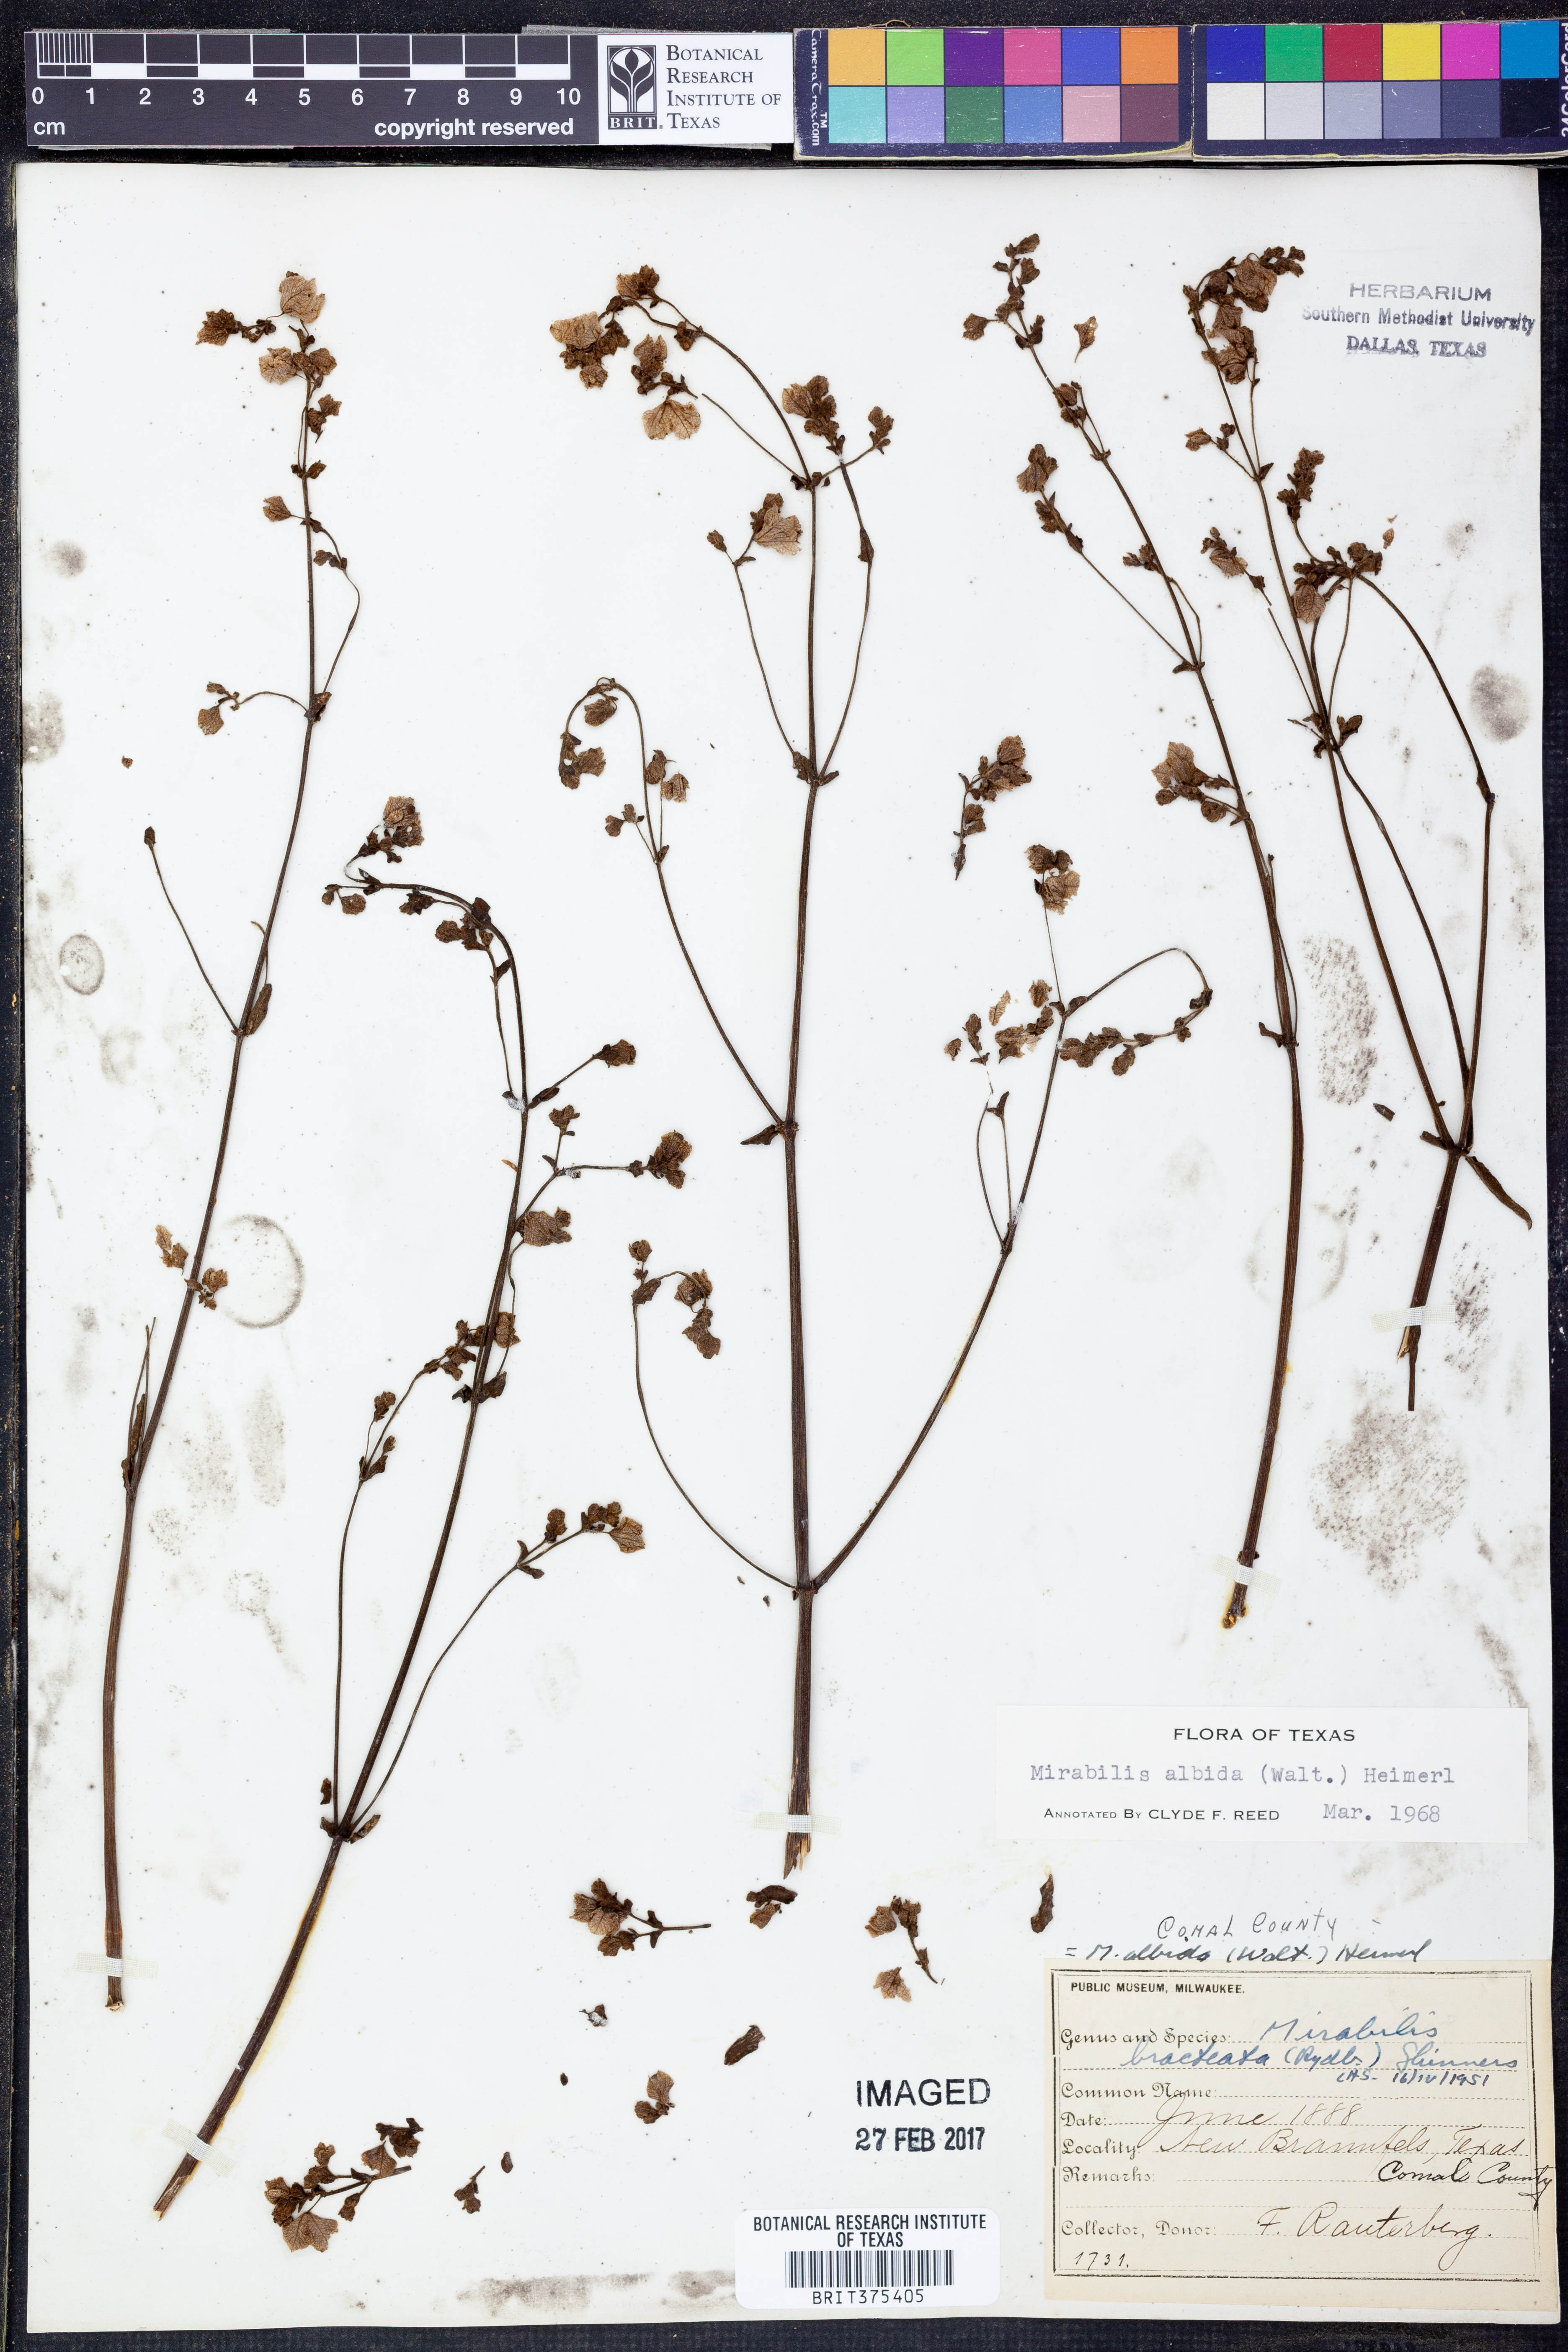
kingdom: Plantae
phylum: Tracheophyta
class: Magnoliopsida
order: Caryophyllales
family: Nyctaginaceae
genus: Mirabilis
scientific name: Mirabilis albida
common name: Hairy four-o'clock
